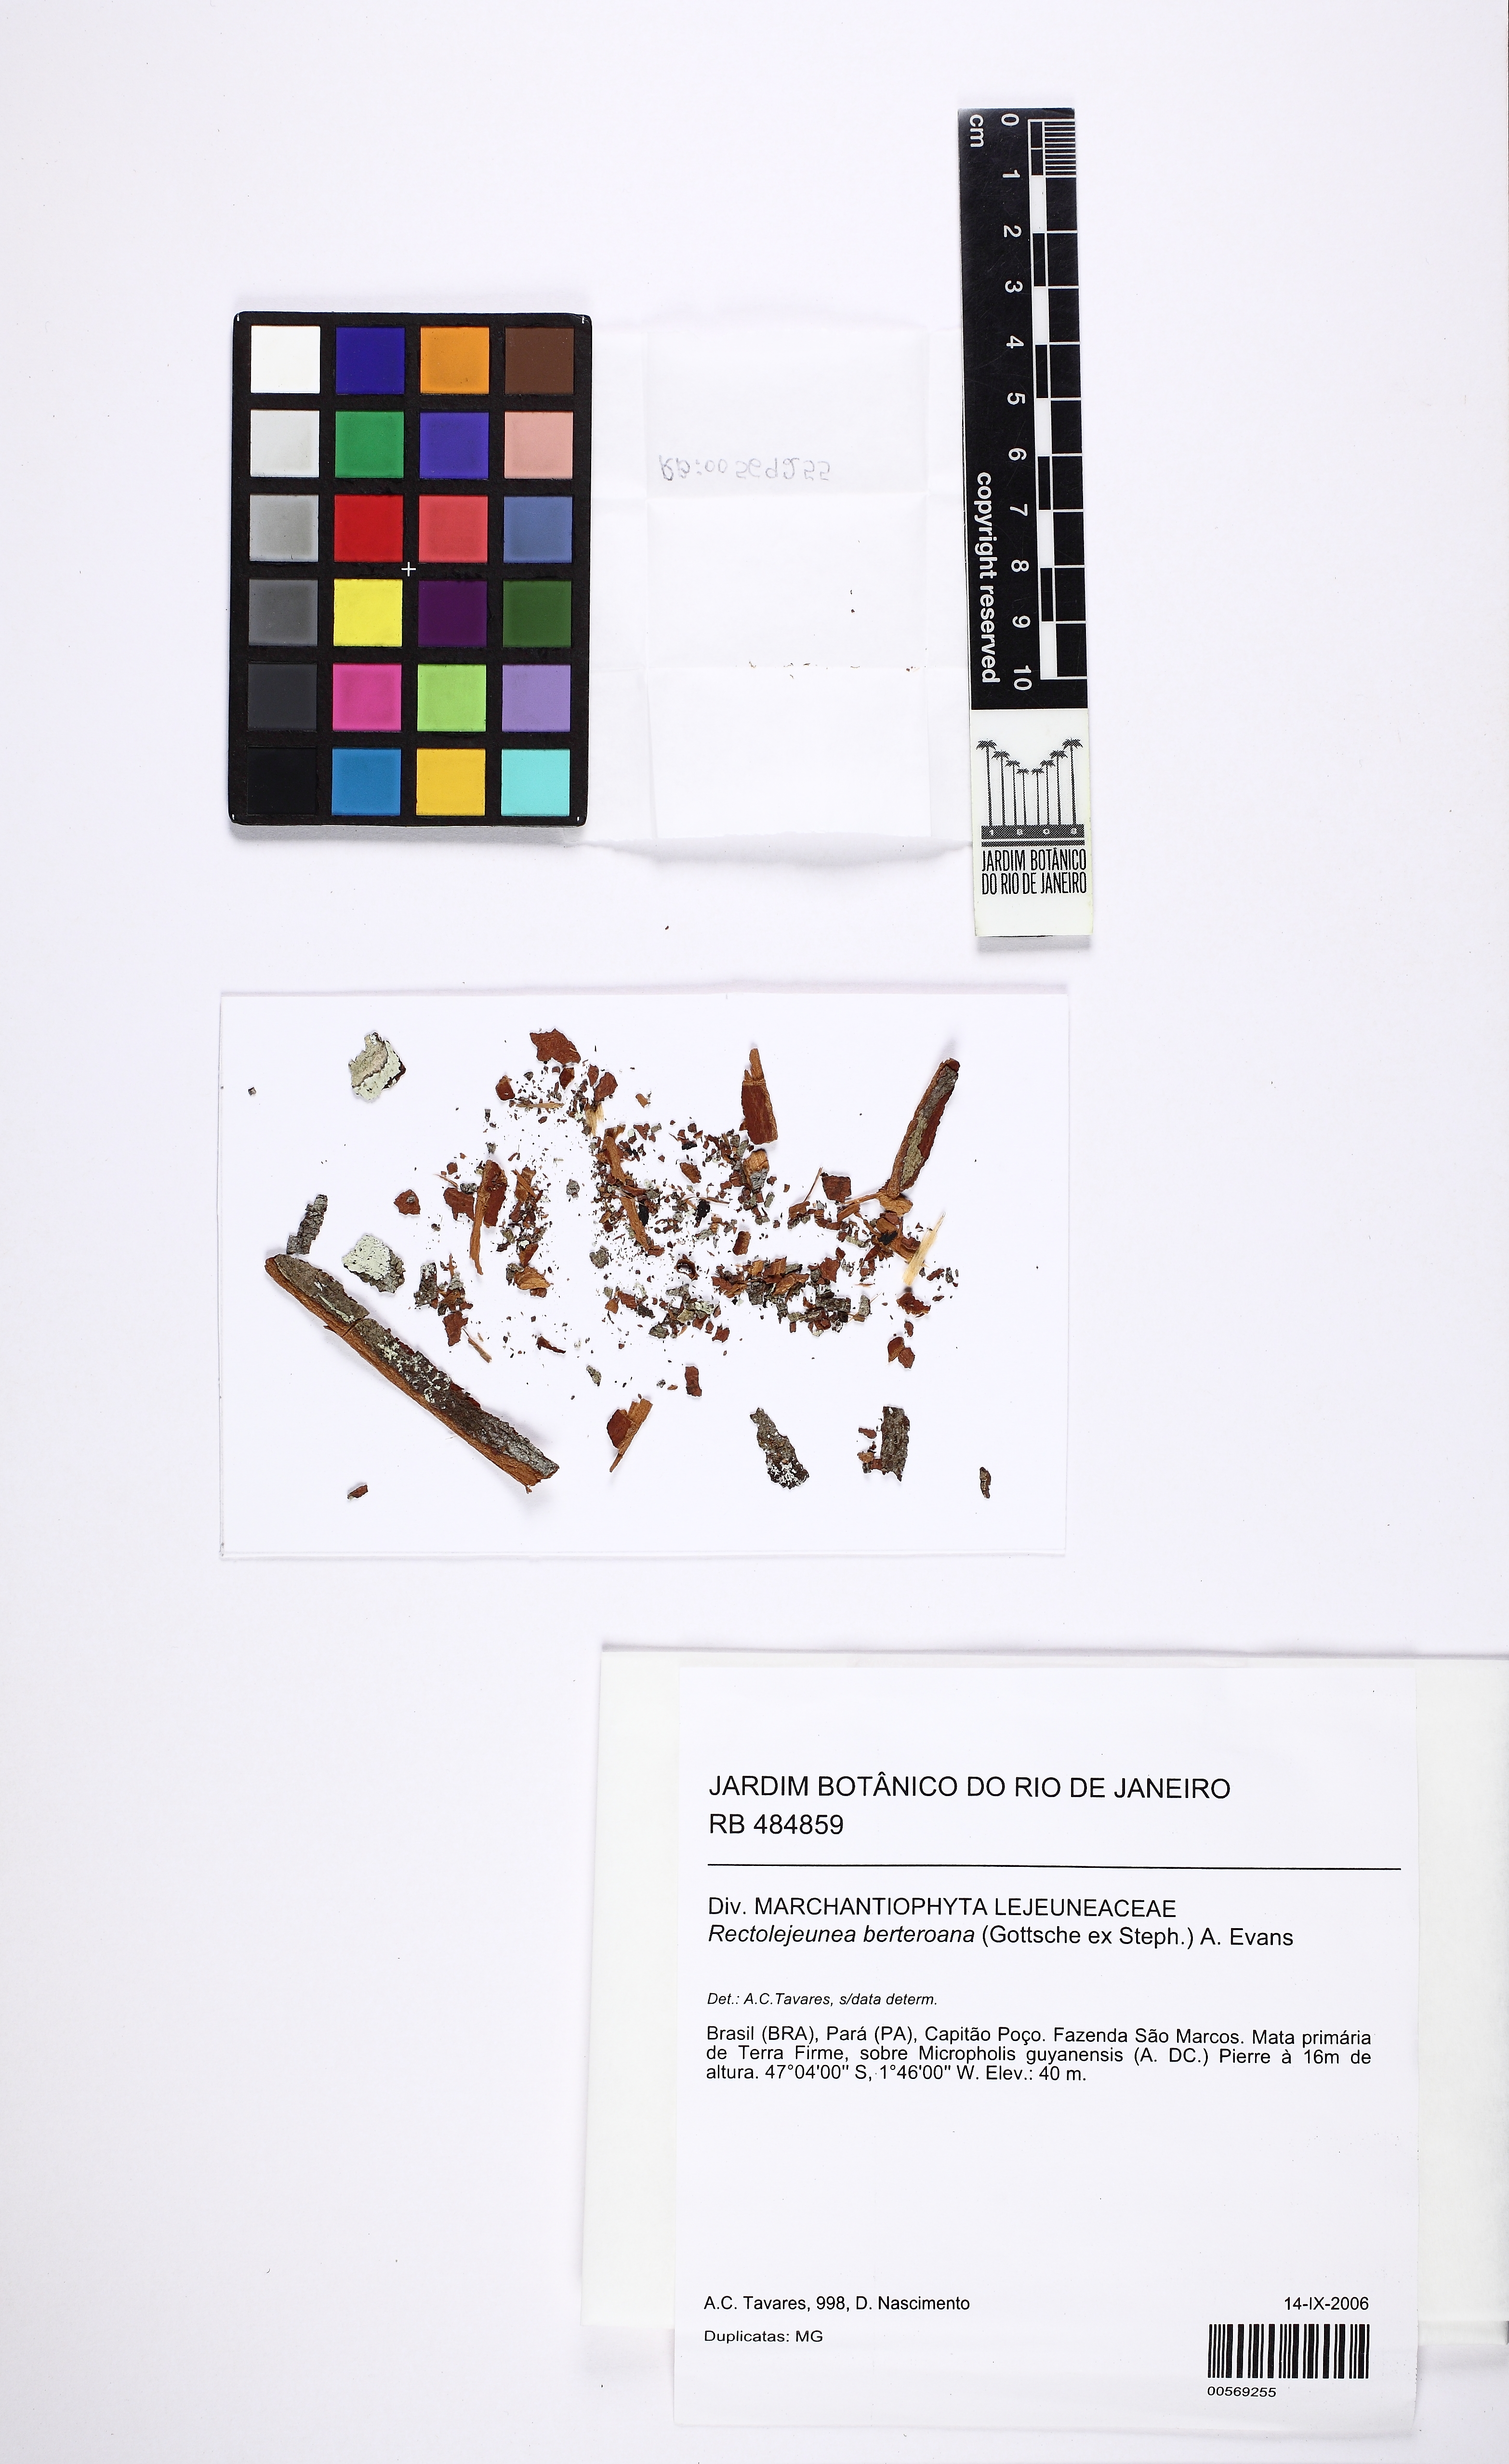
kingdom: Plantae
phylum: Marchantiophyta
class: Jungermanniopsida
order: Porellales
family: Lejeuneaceae
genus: Rectolejeunea
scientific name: Rectolejeunea versifolia
